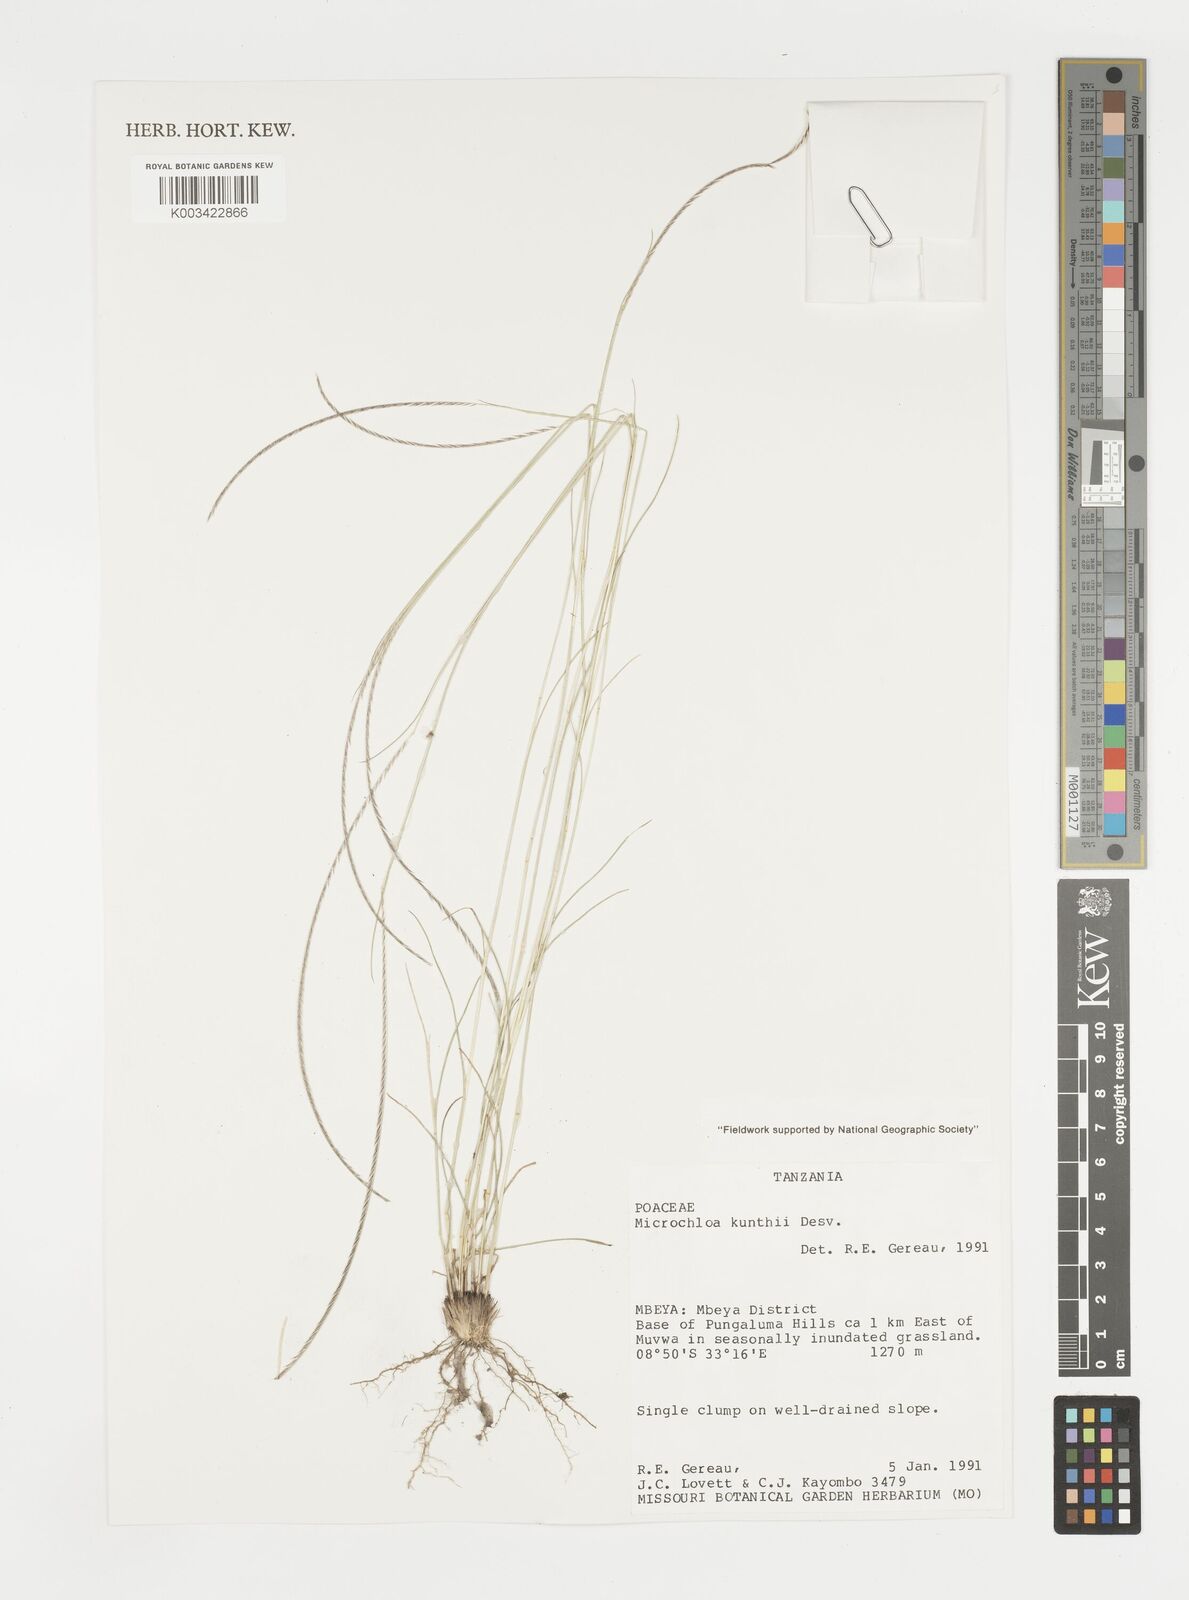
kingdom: Plantae
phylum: Tracheophyta
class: Liliopsida
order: Poales
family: Poaceae
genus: Microchloa
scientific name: Microchloa kunthii
